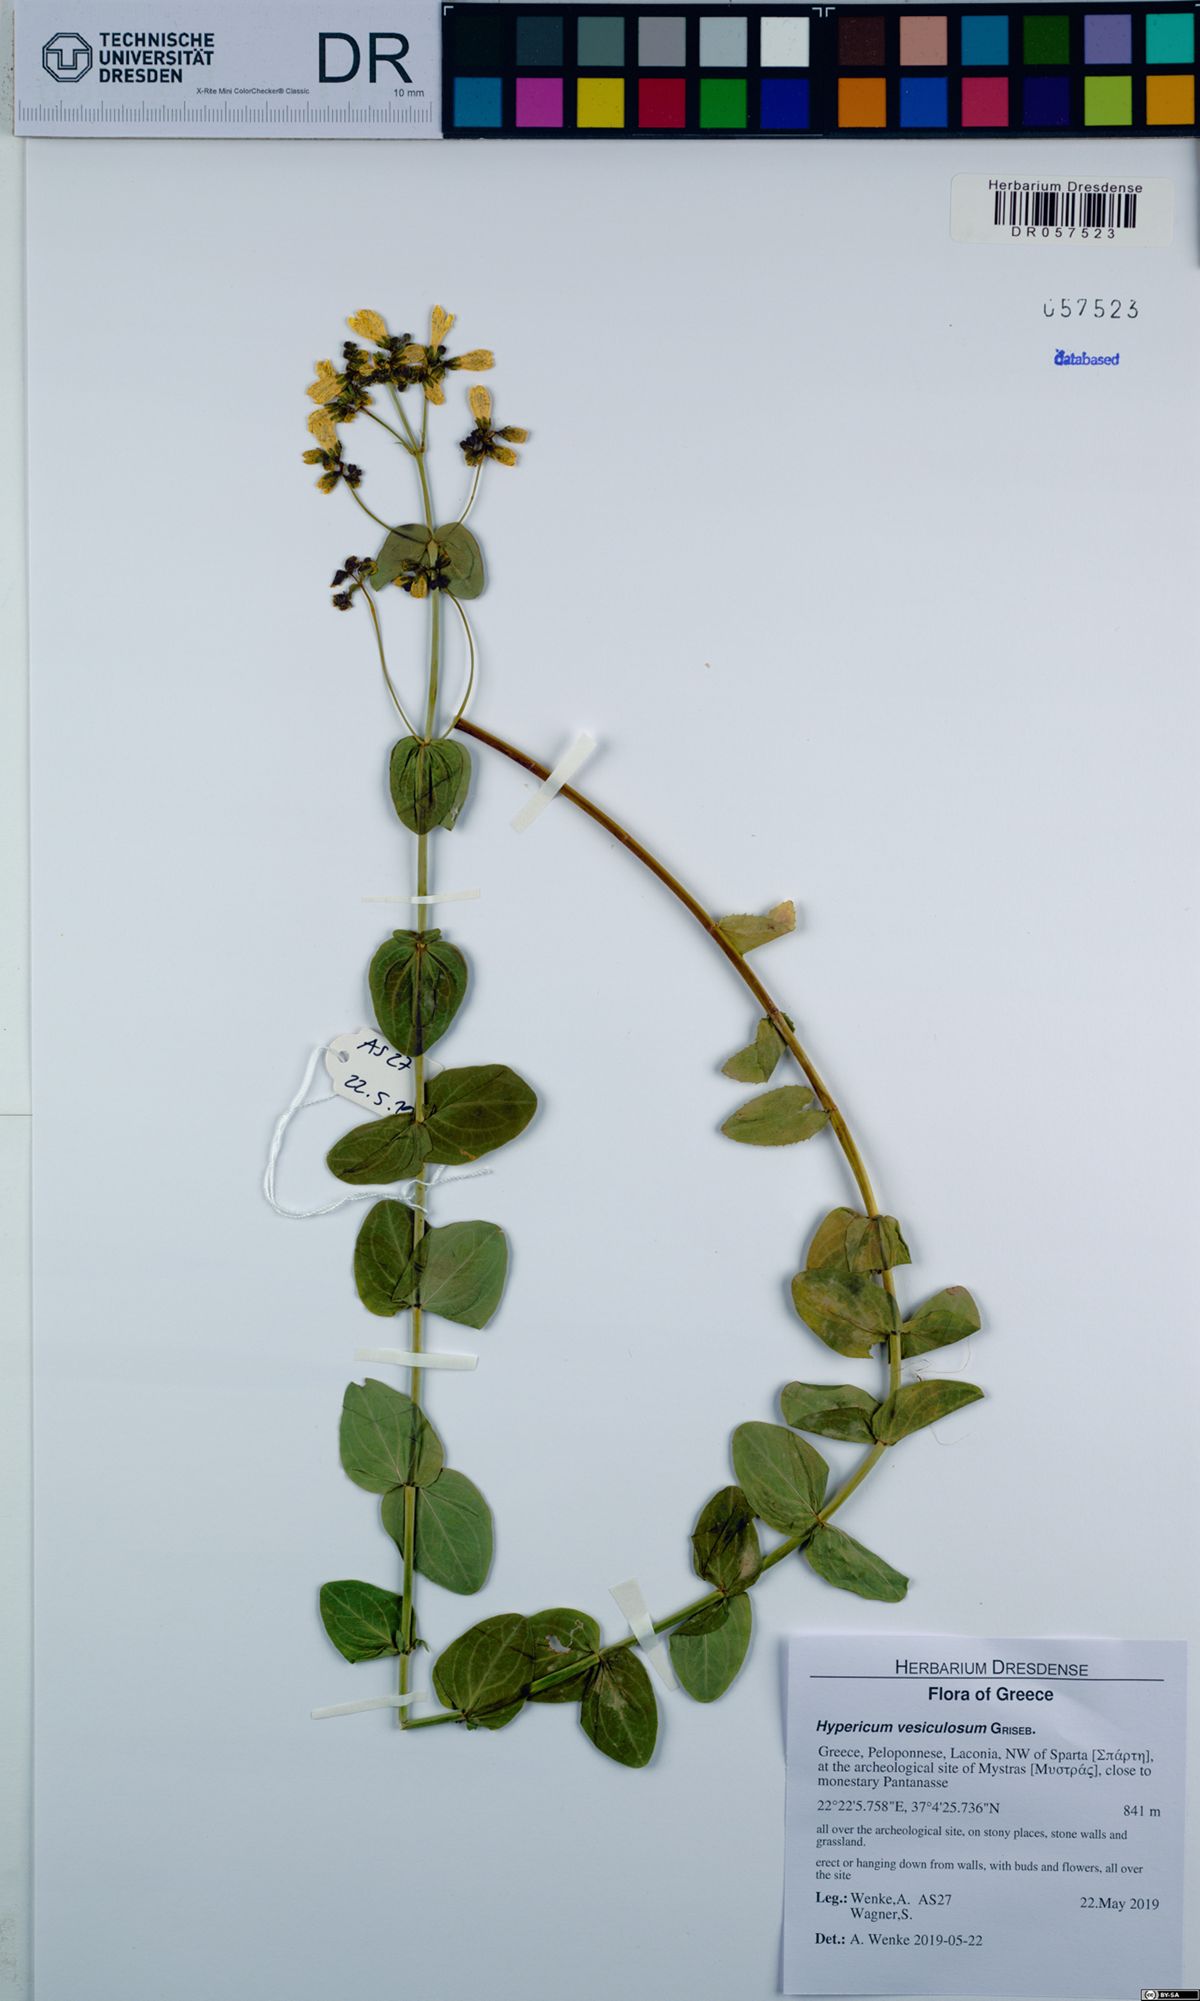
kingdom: Plantae
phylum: Tracheophyta
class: Magnoliopsida
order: Malpighiales
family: Hypericaceae
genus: Hypericum
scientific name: Hypericum vesiculosum
